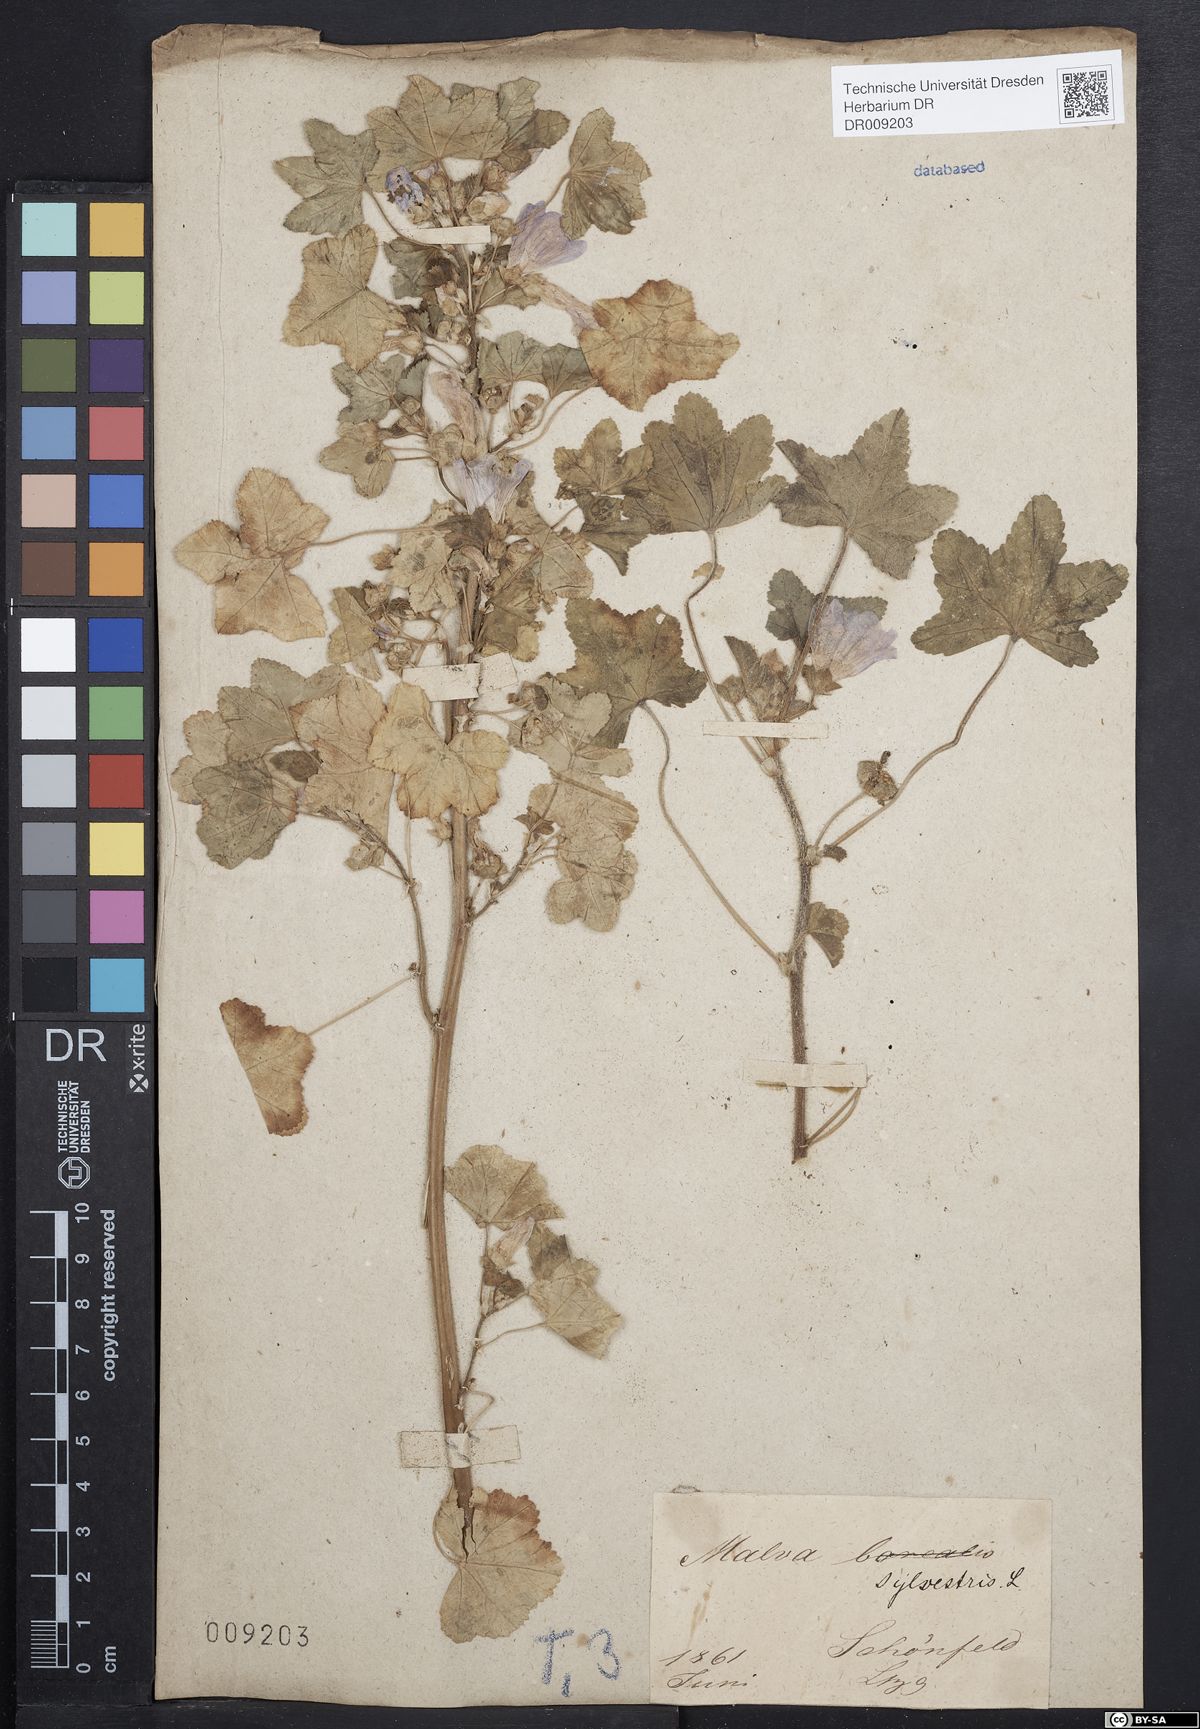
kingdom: Plantae
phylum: Tracheophyta
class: Magnoliopsida
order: Malvales
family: Malvaceae
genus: Malva
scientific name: Malva sylvestris
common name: Common mallow
